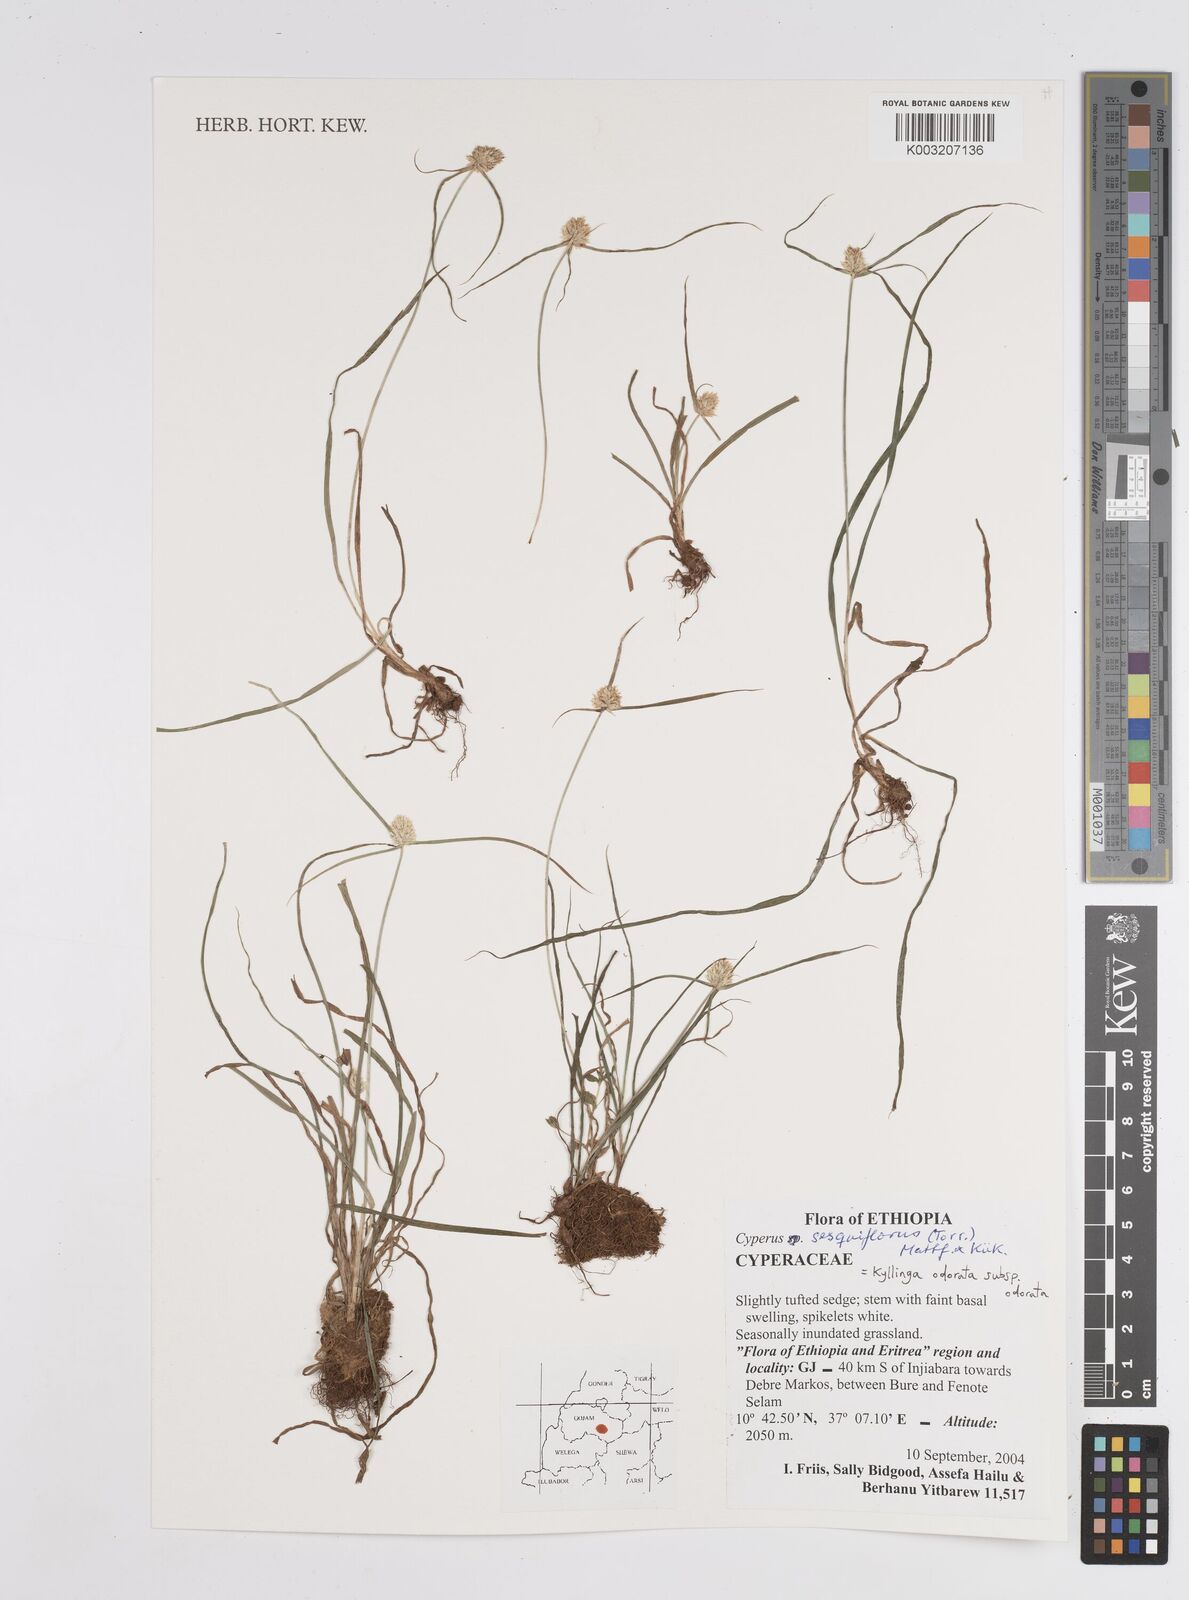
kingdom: Plantae
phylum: Tracheophyta
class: Liliopsida
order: Poales
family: Cyperaceae
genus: Cyperus
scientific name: Cyperus odoratus
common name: Fragrant flatsedge
